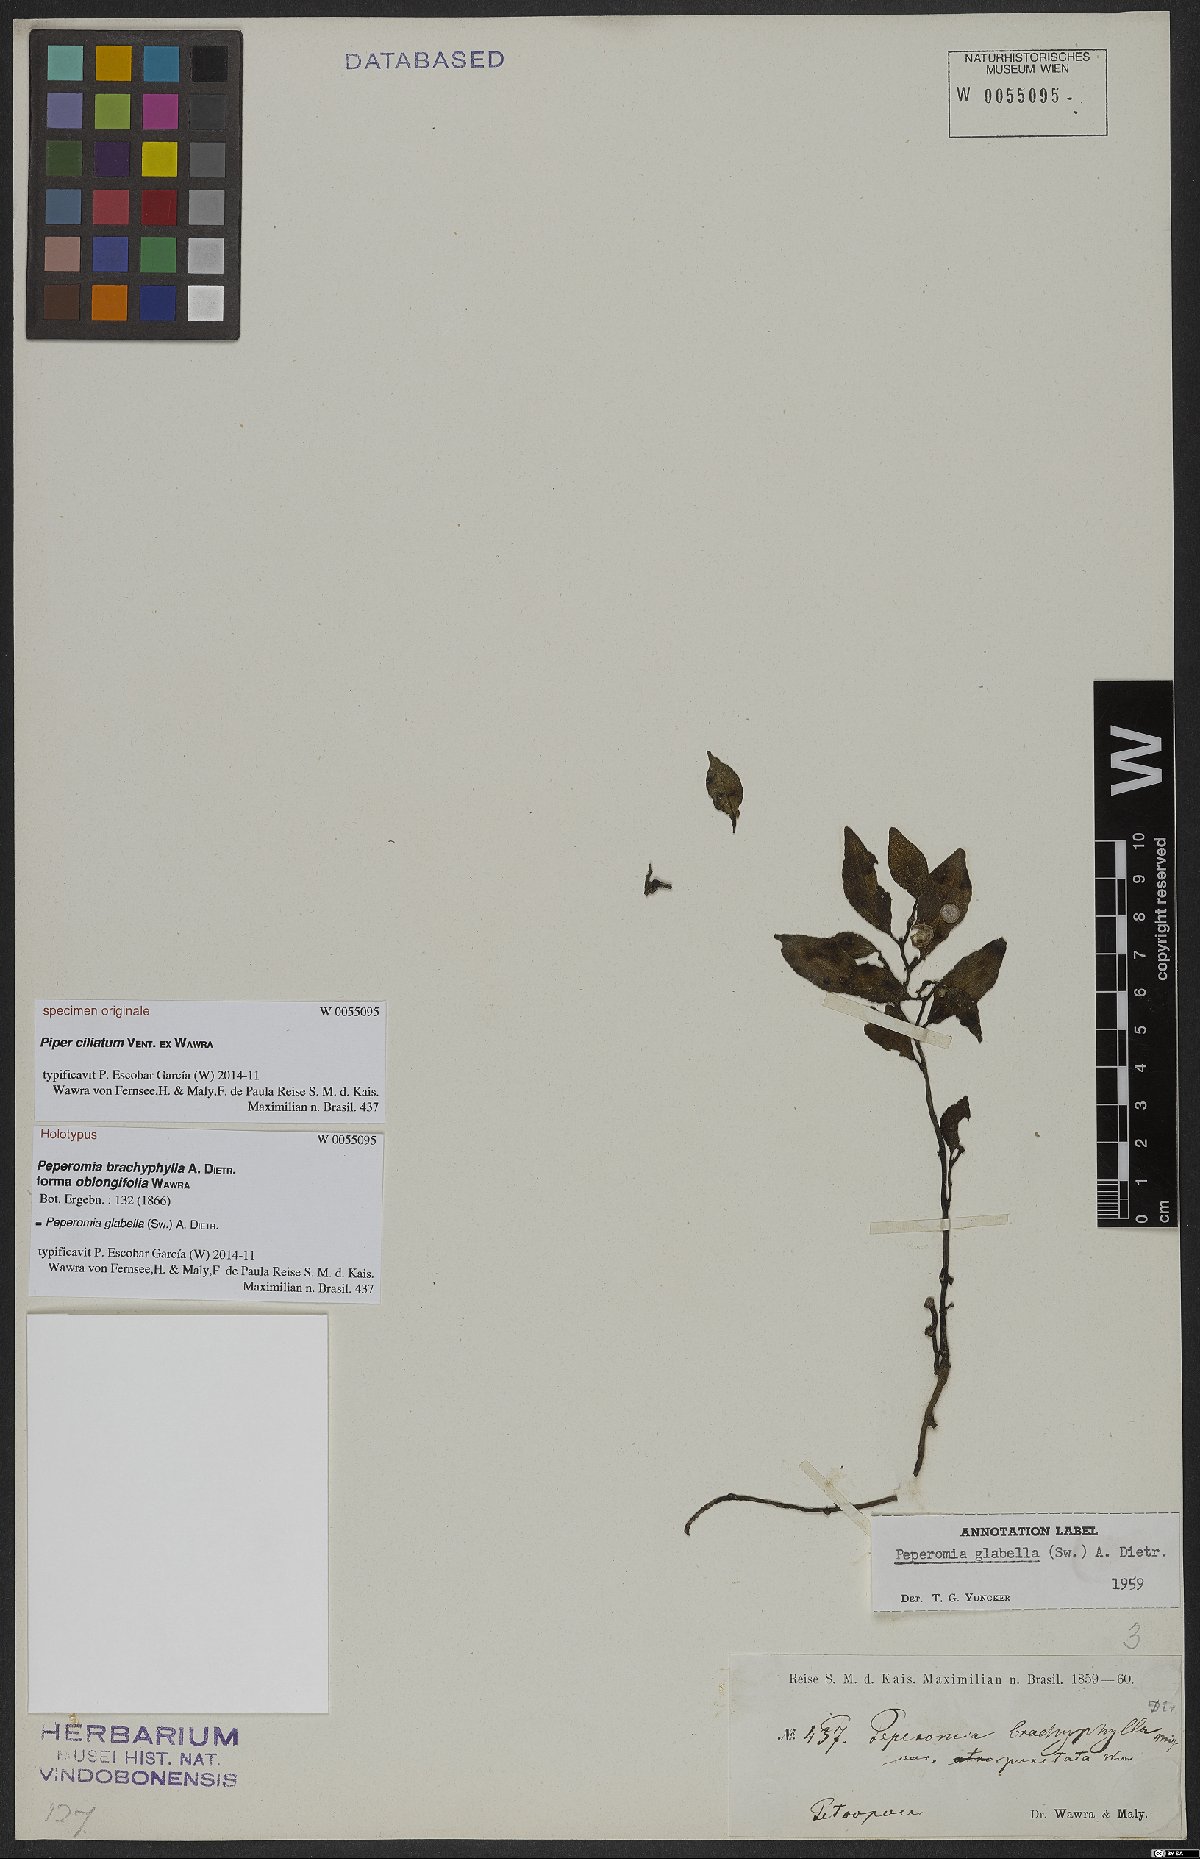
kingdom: Plantae
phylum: Tracheophyta
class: Magnoliopsida
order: Piperales
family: Piperaceae
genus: Peperomia
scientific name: Peperomia glabella
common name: Cypress peperomia
